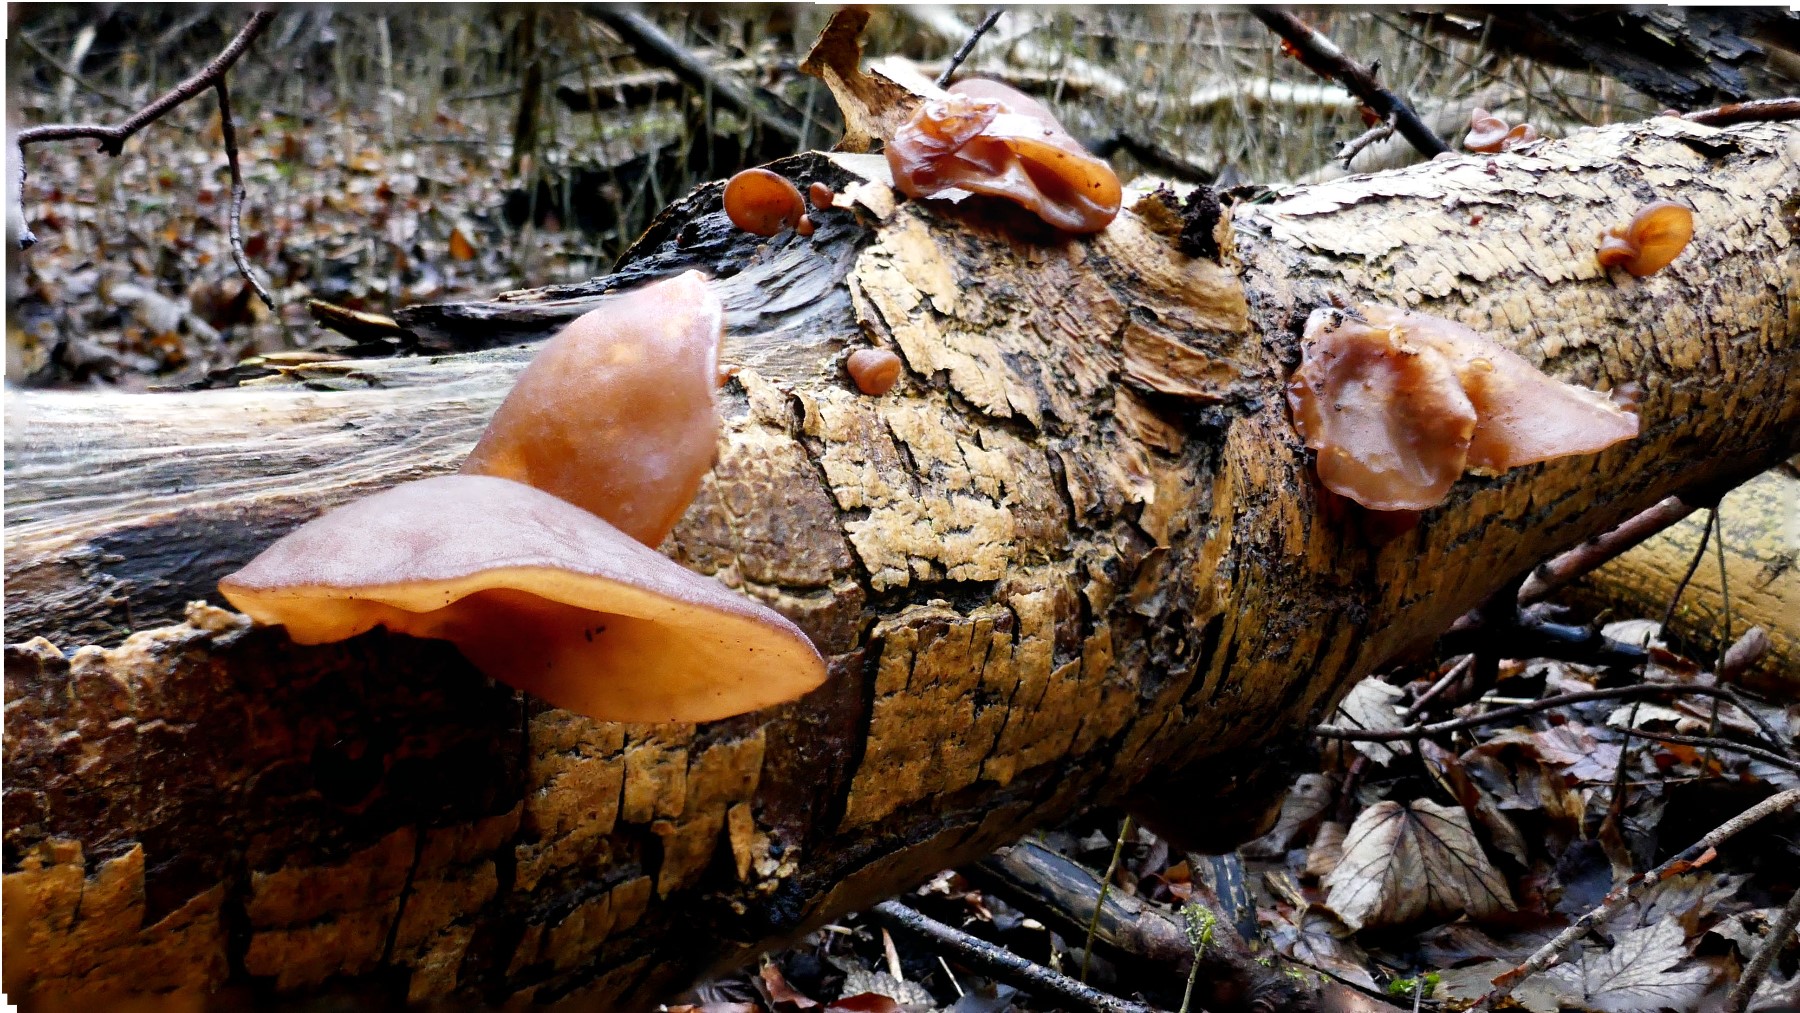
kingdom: Fungi
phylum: Basidiomycota
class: Agaricomycetes
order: Auriculariales
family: Auriculariaceae
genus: Auricularia
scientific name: Auricularia auricula-judae
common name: almindelig judasøre
